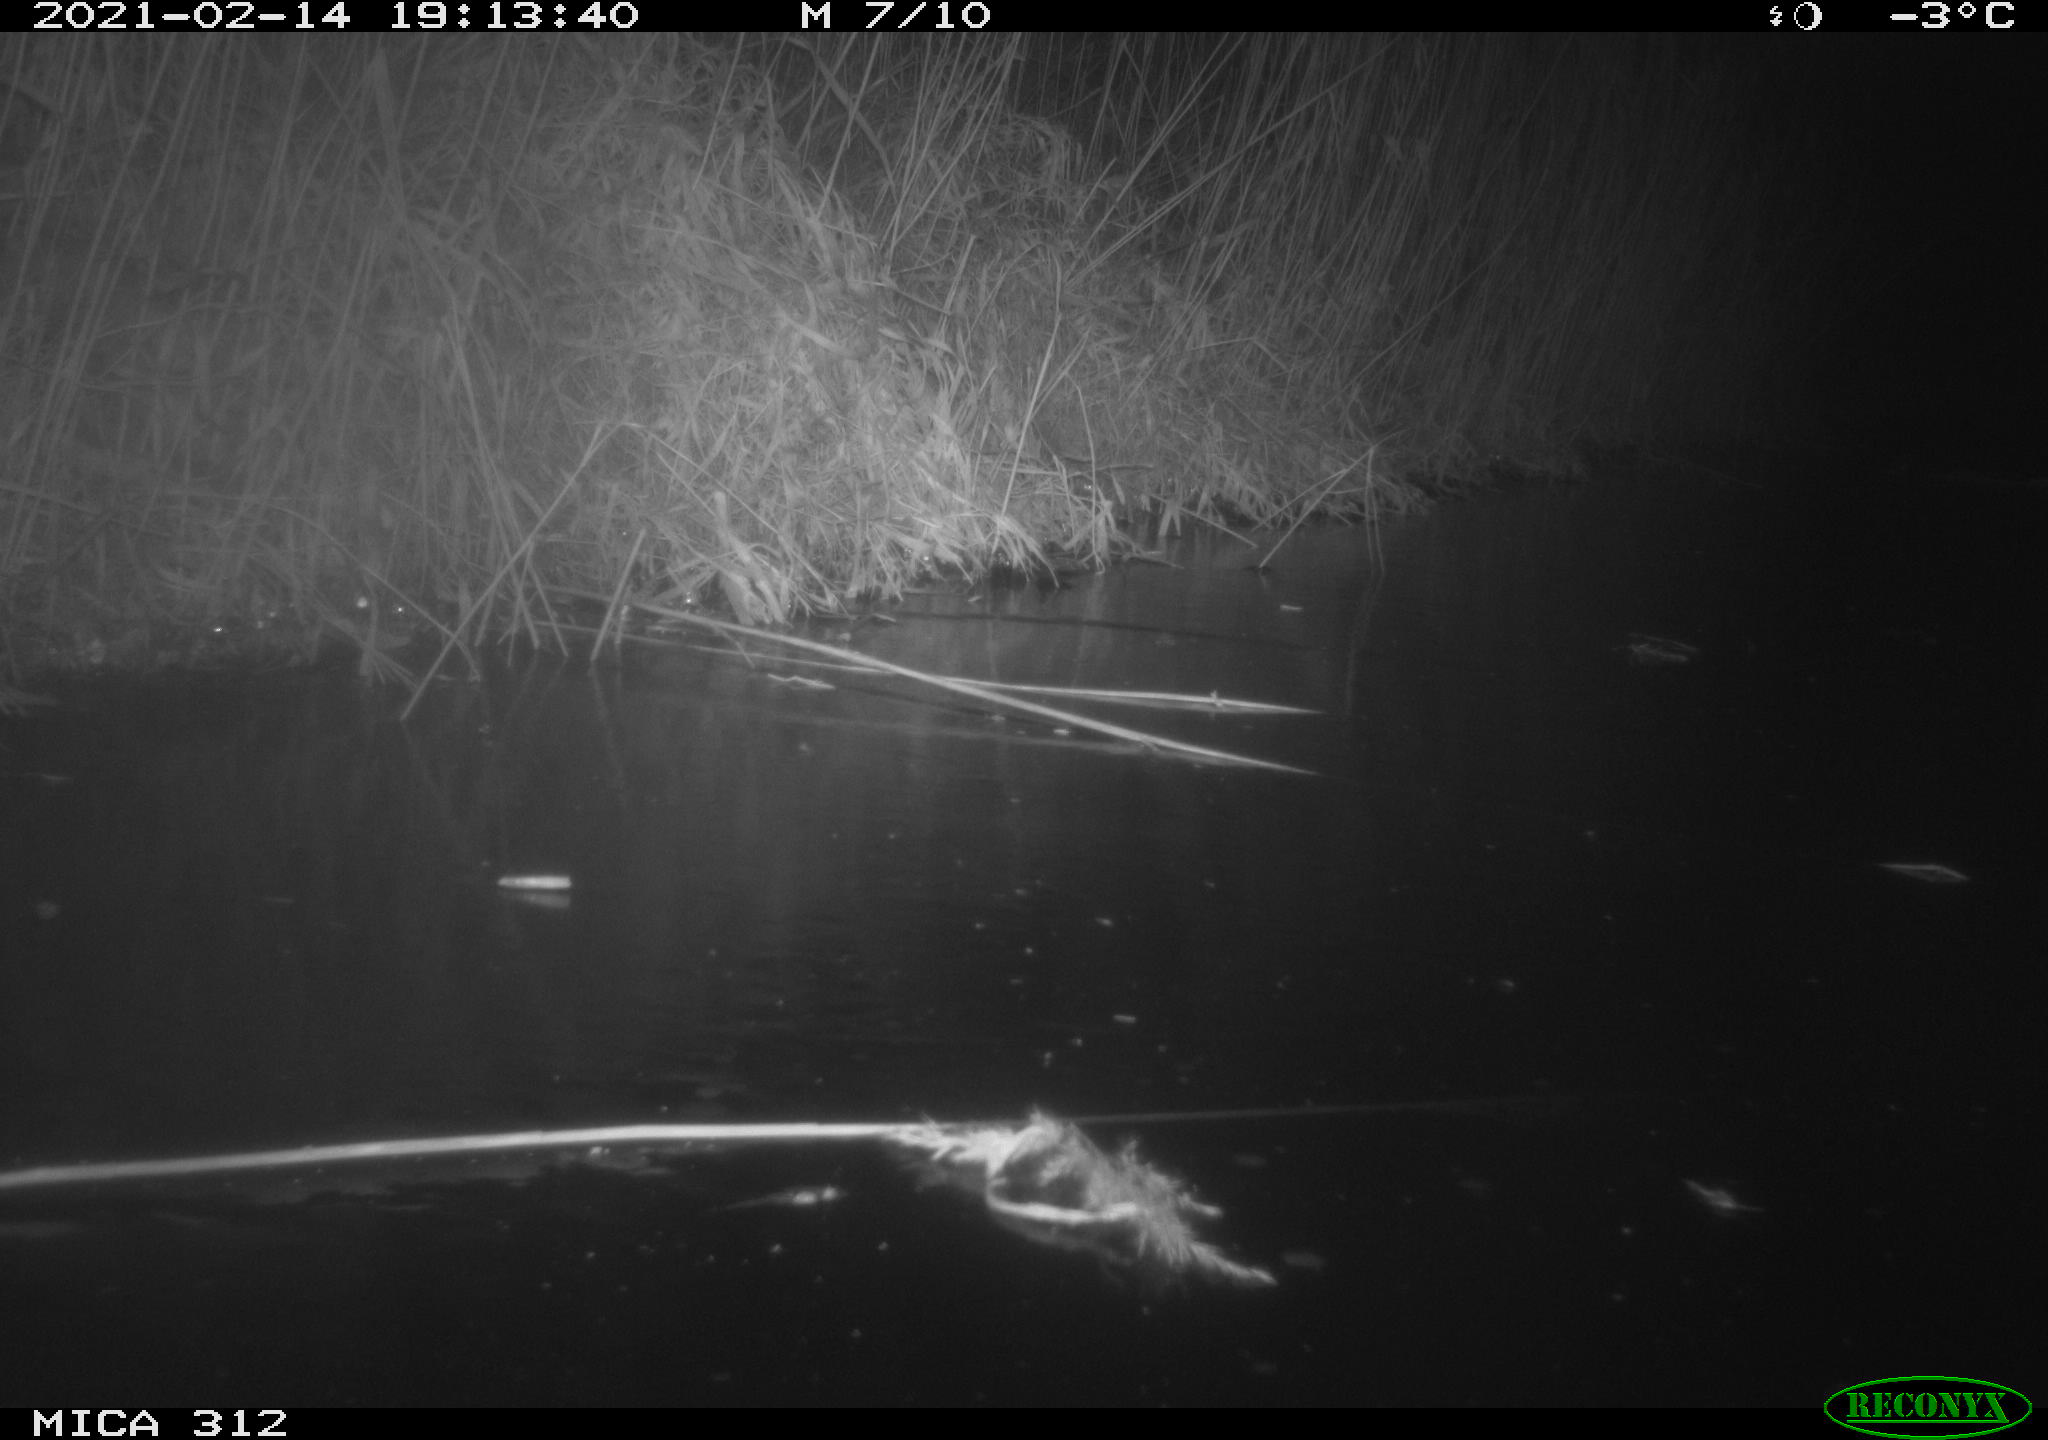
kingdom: Animalia
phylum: Chordata
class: Mammalia
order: Rodentia
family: Muridae
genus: Rattus
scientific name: Rattus norvegicus
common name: Brown rat
